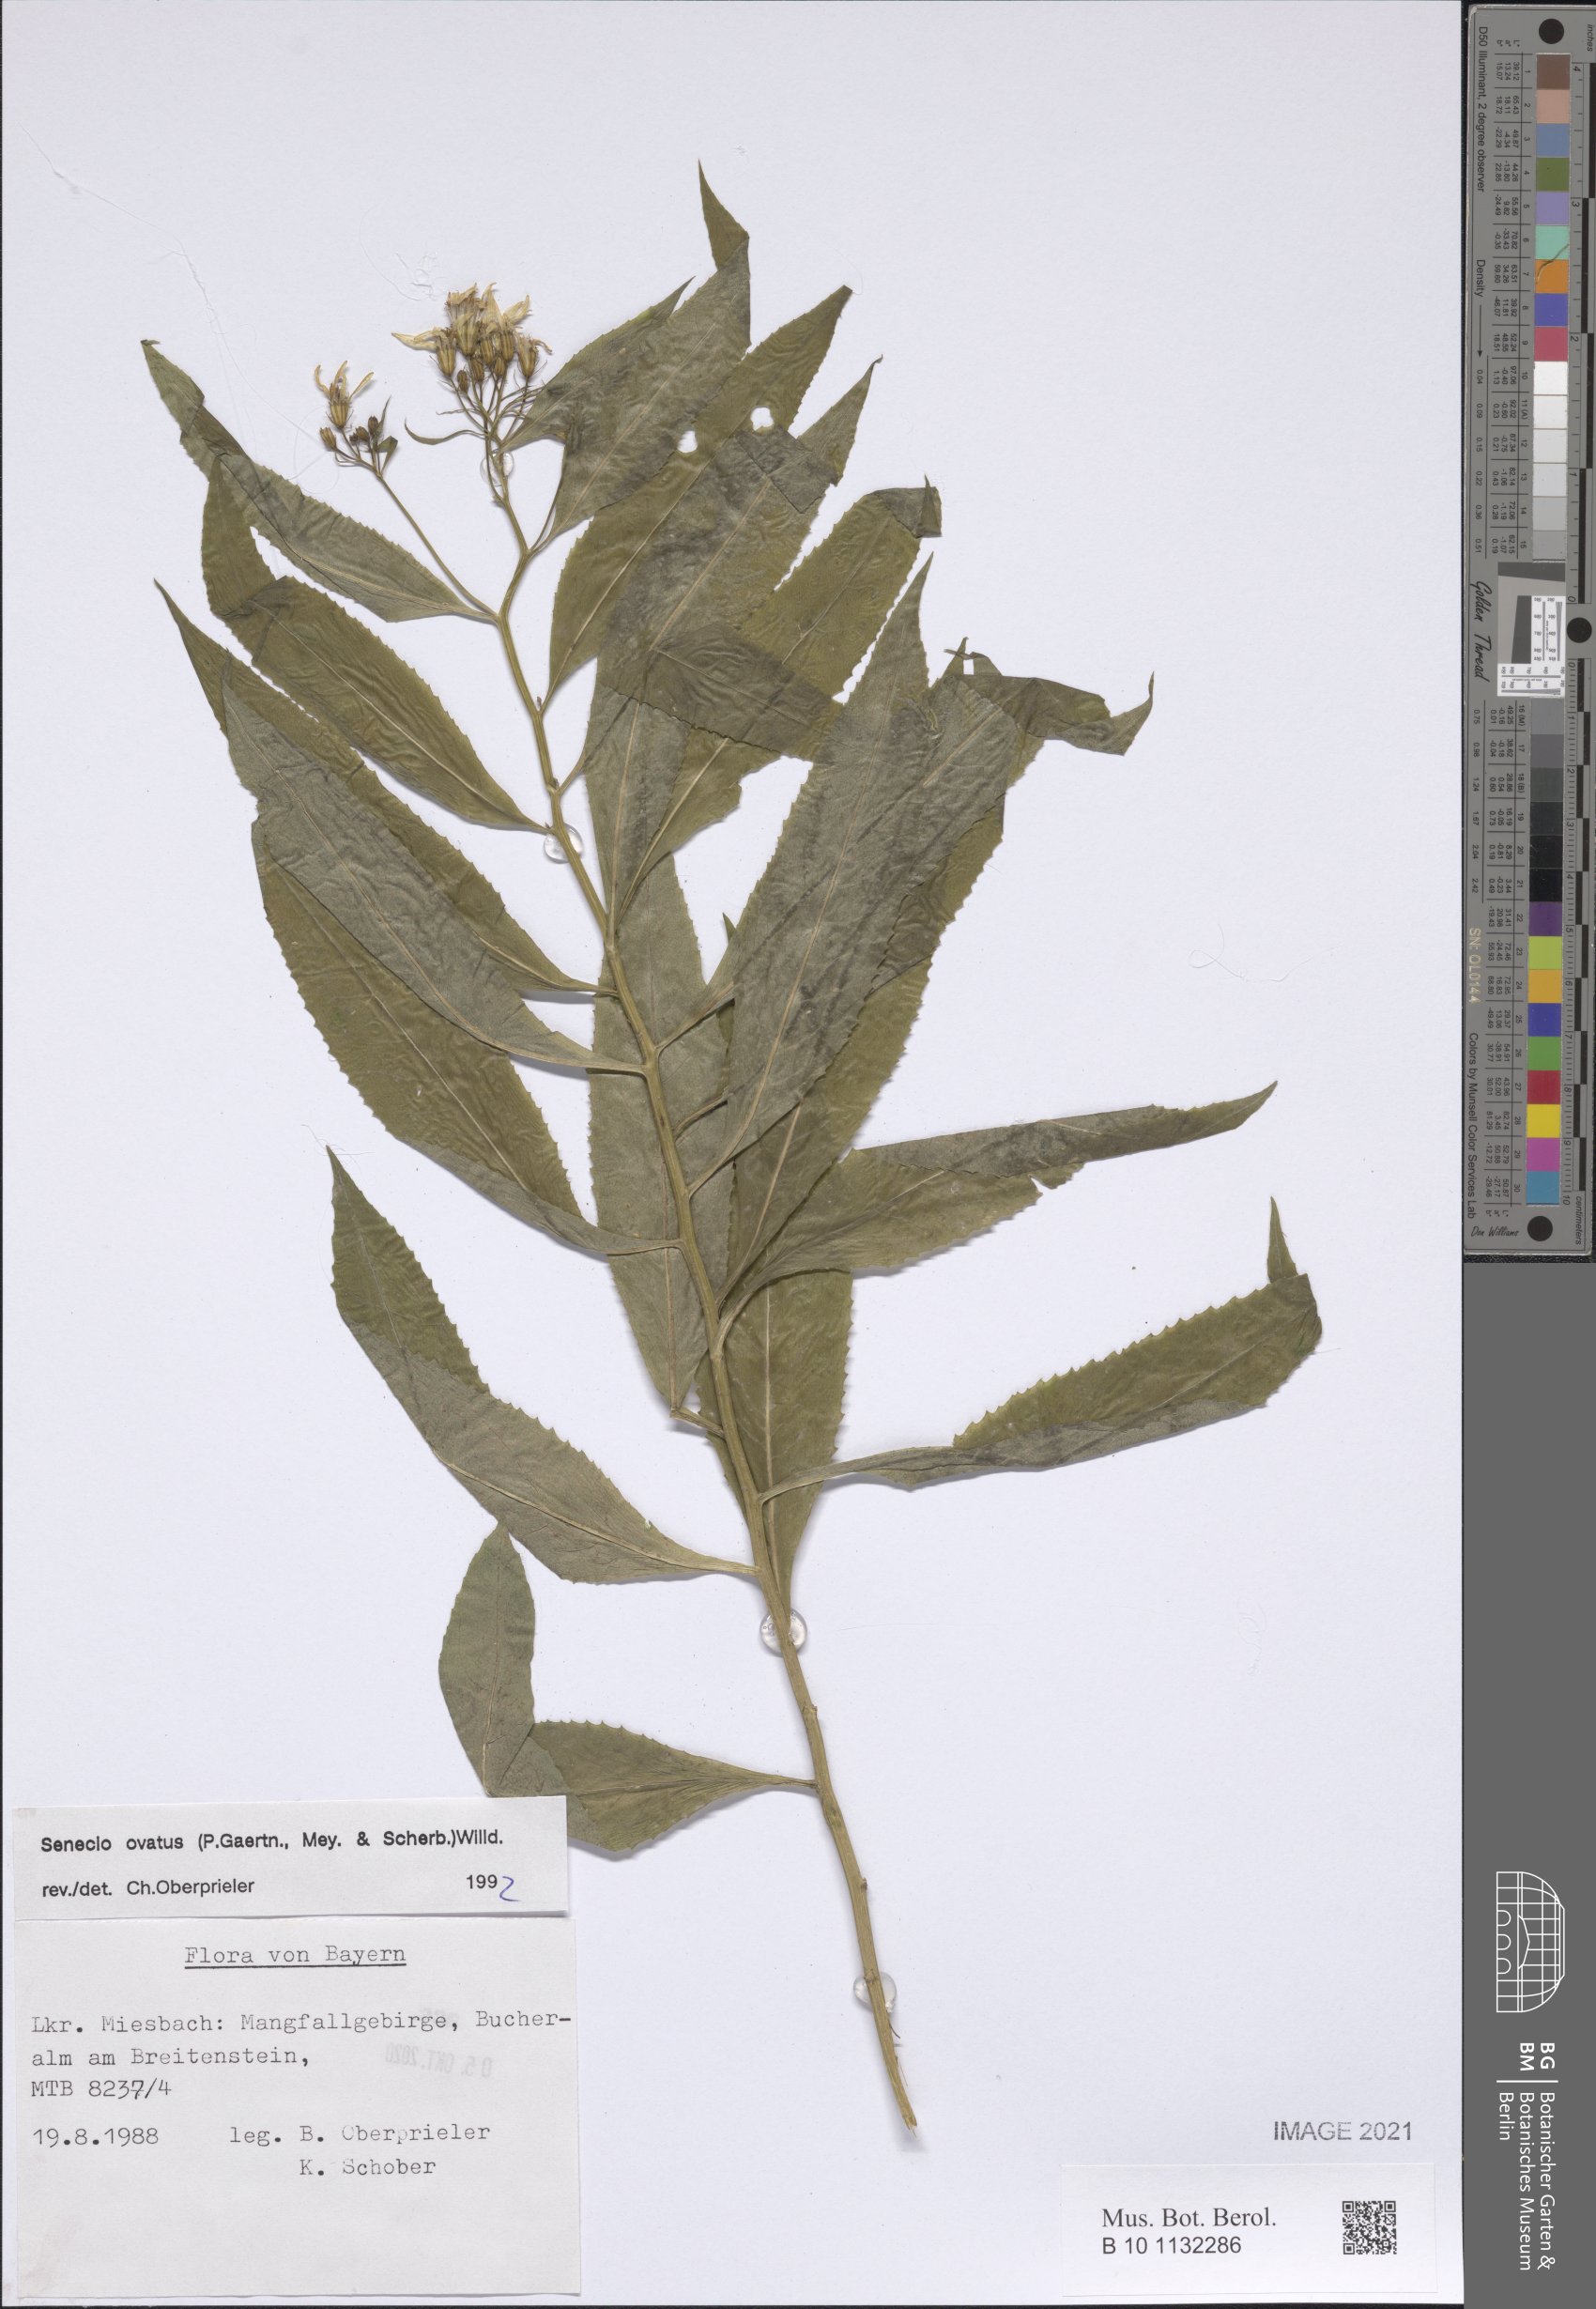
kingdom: Plantae
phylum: Tracheophyta
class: Magnoliopsida
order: Asterales
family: Asteraceae
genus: Senecio
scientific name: Senecio ovatus
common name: Wood ragwort
